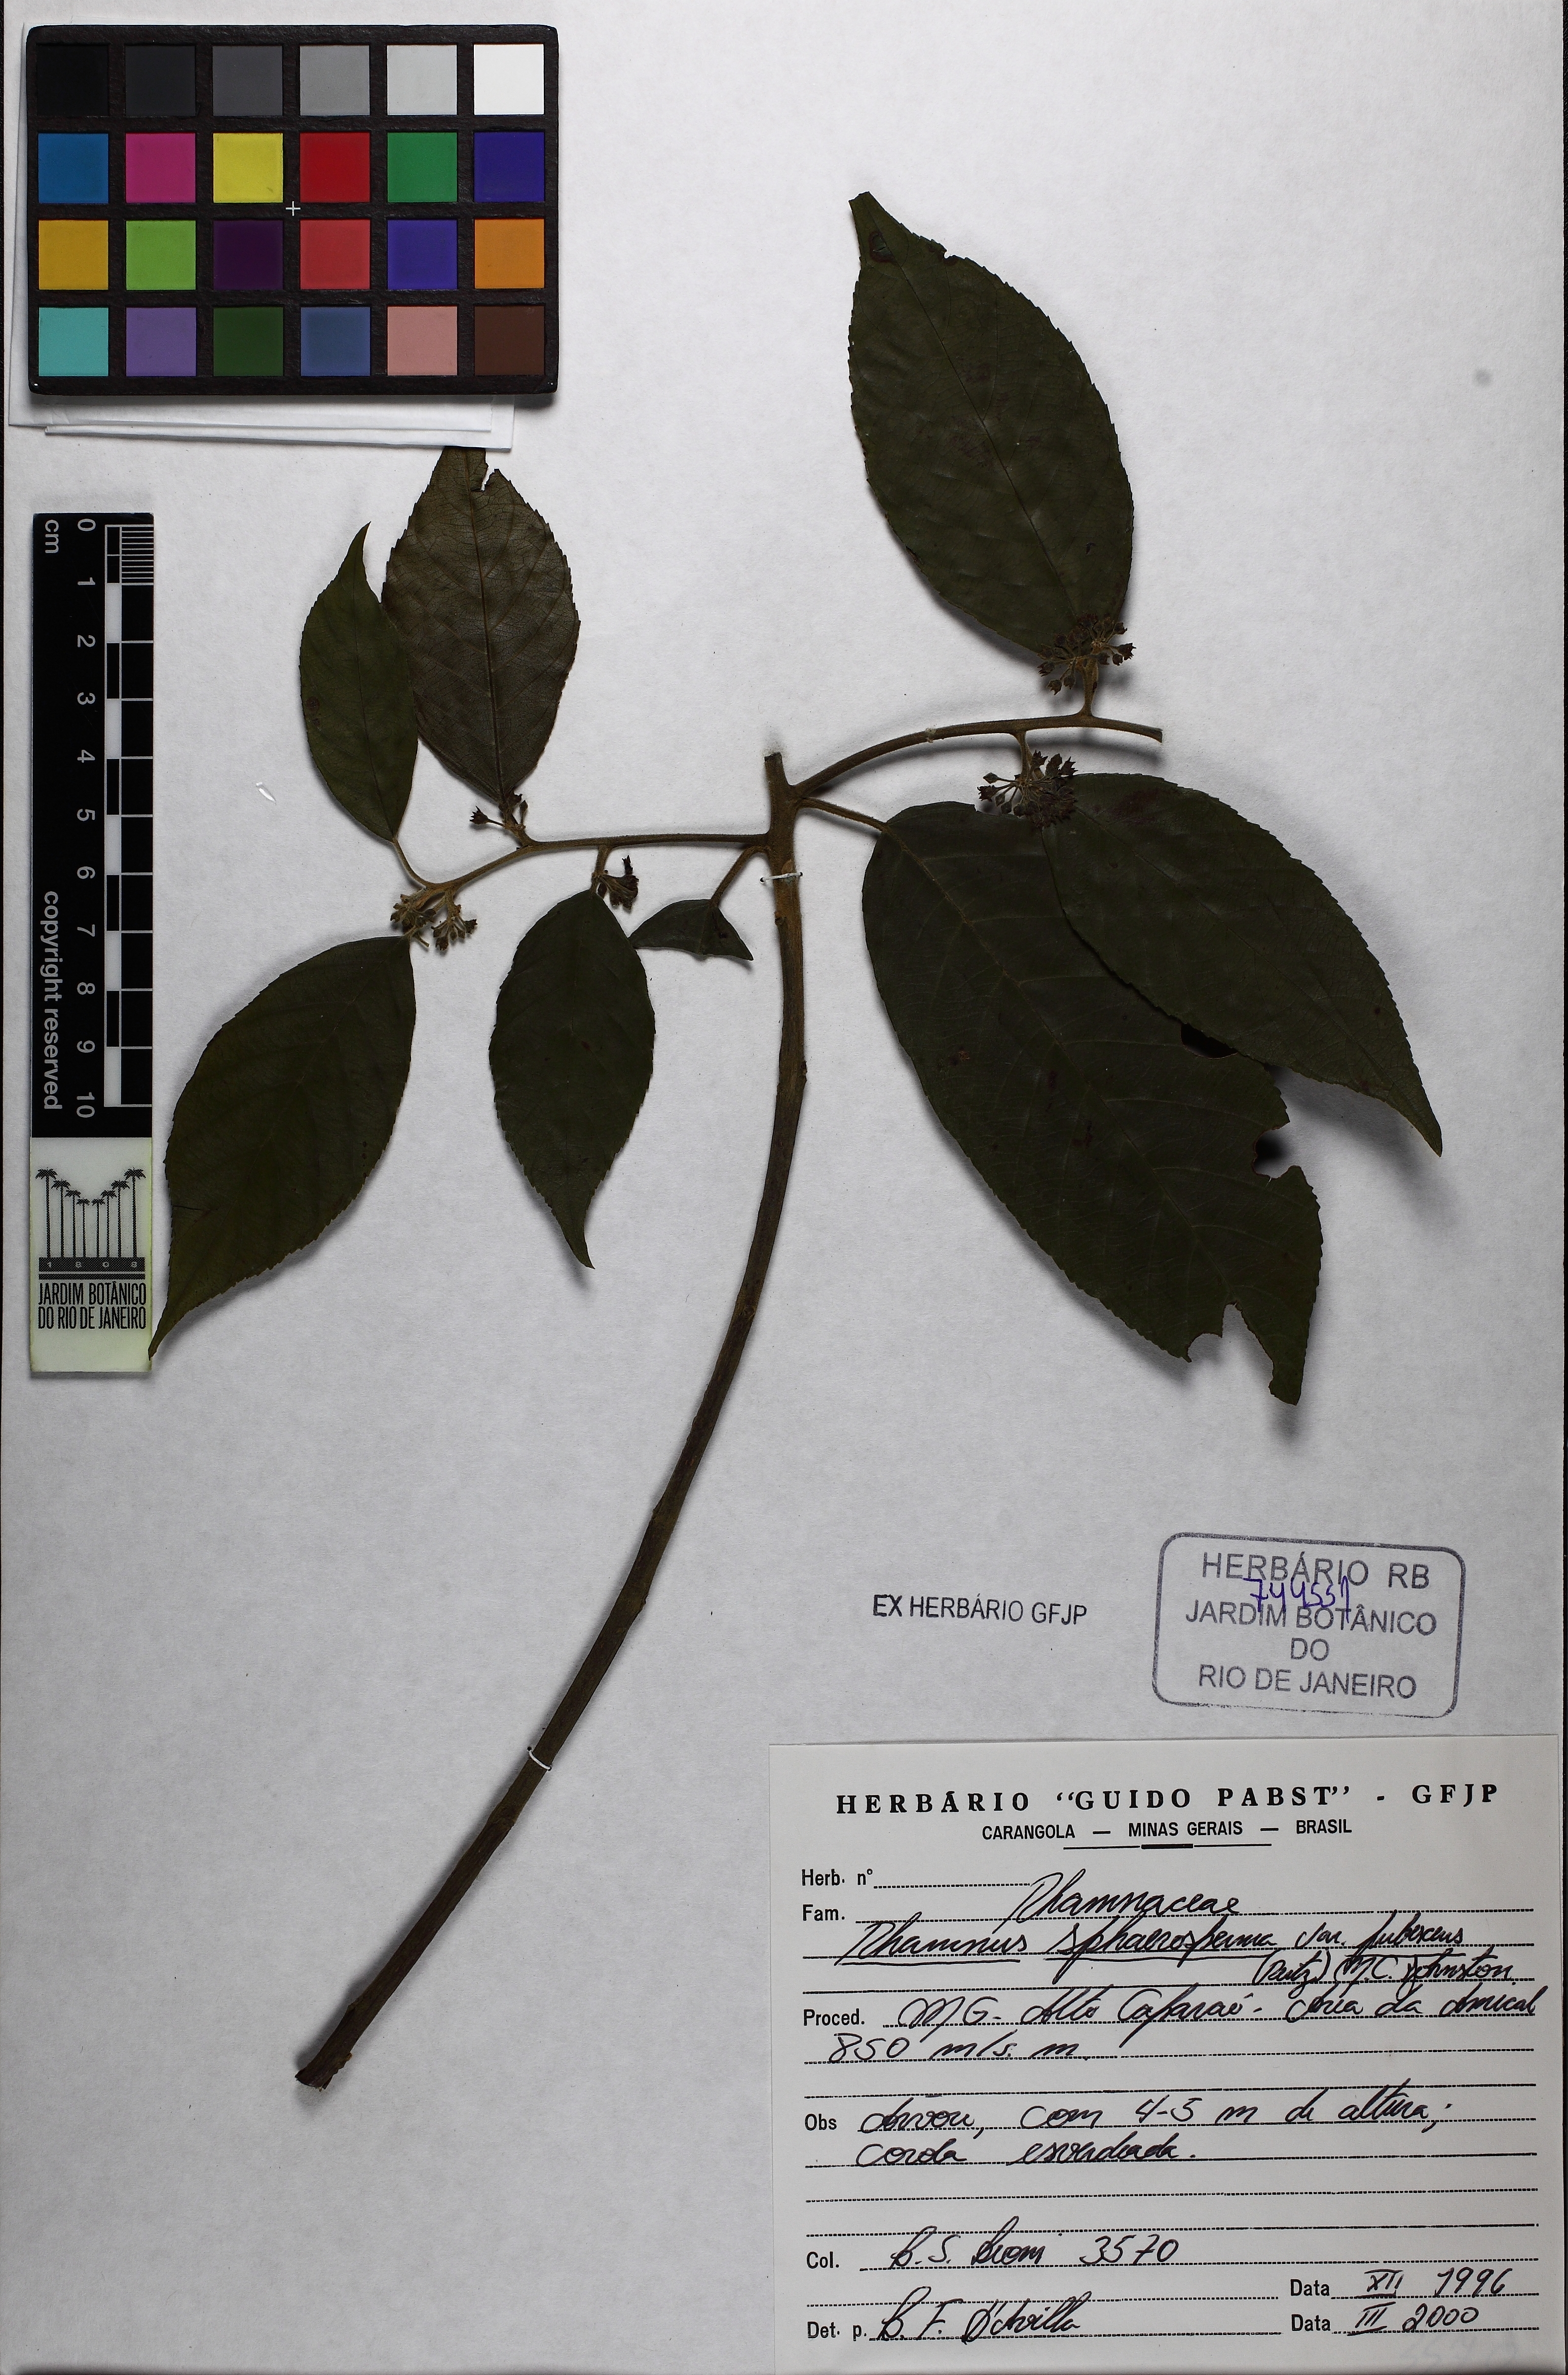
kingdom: Plantae
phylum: Tracheophyta
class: Magnoliopsida
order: Rosales
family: Rhamnaceae
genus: Frangula
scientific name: Frangula sphaerosperma
